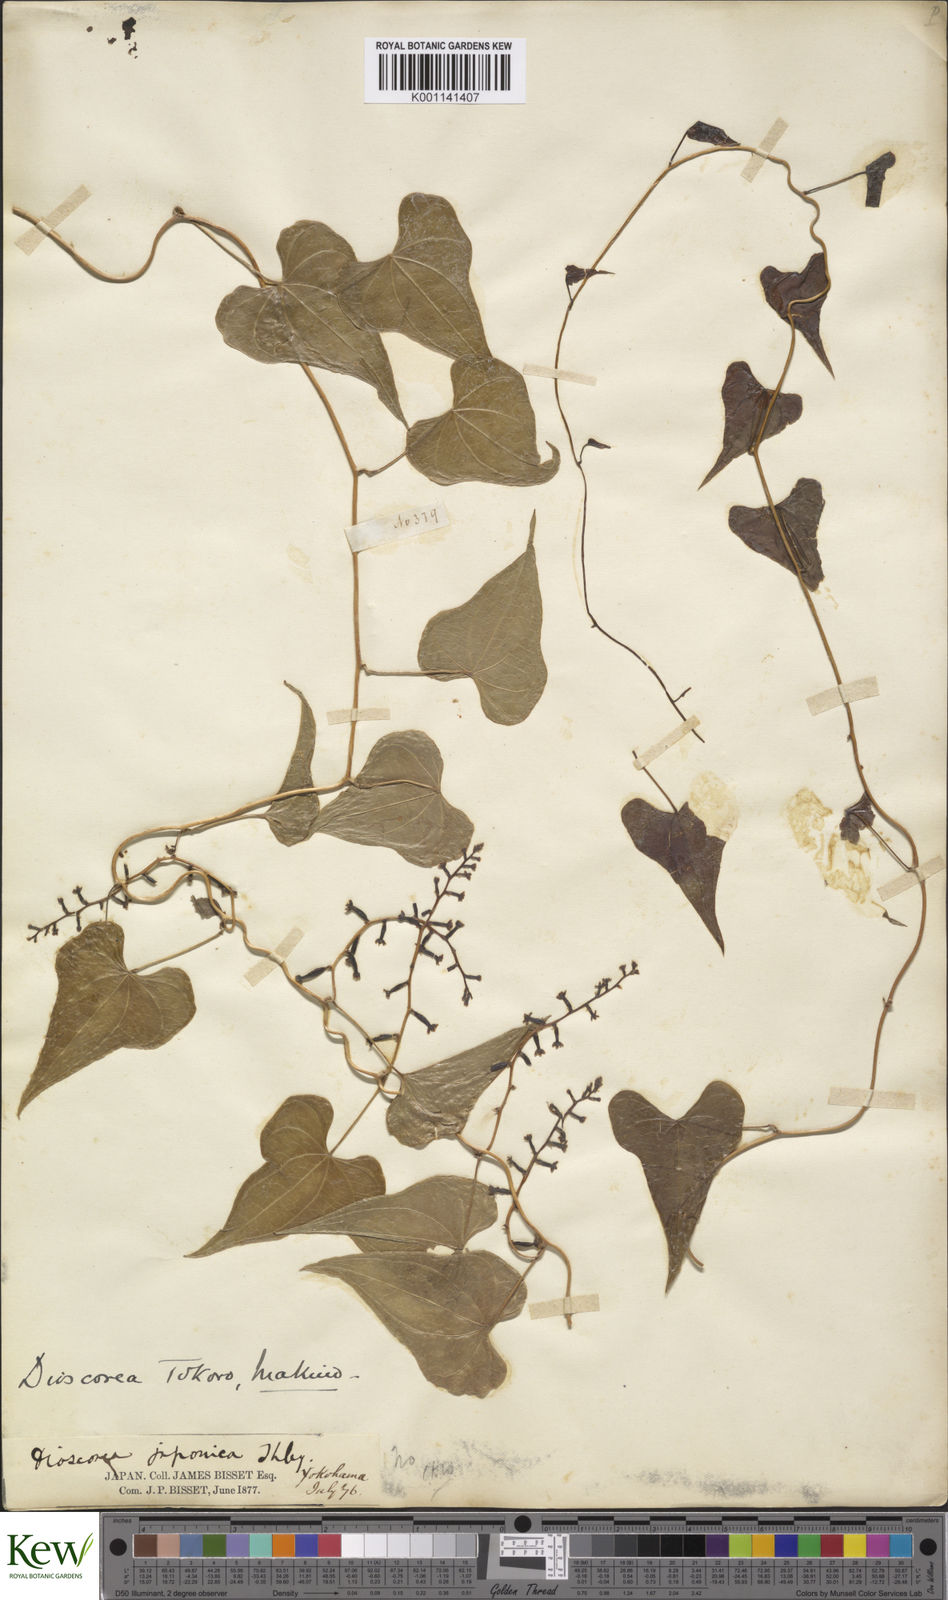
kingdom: Plantae
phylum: Tracheophyta
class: Liliopsida
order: Dioscoreales
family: Dioscoreaceae
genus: Dioscorea
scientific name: Dioscorea tokoro
